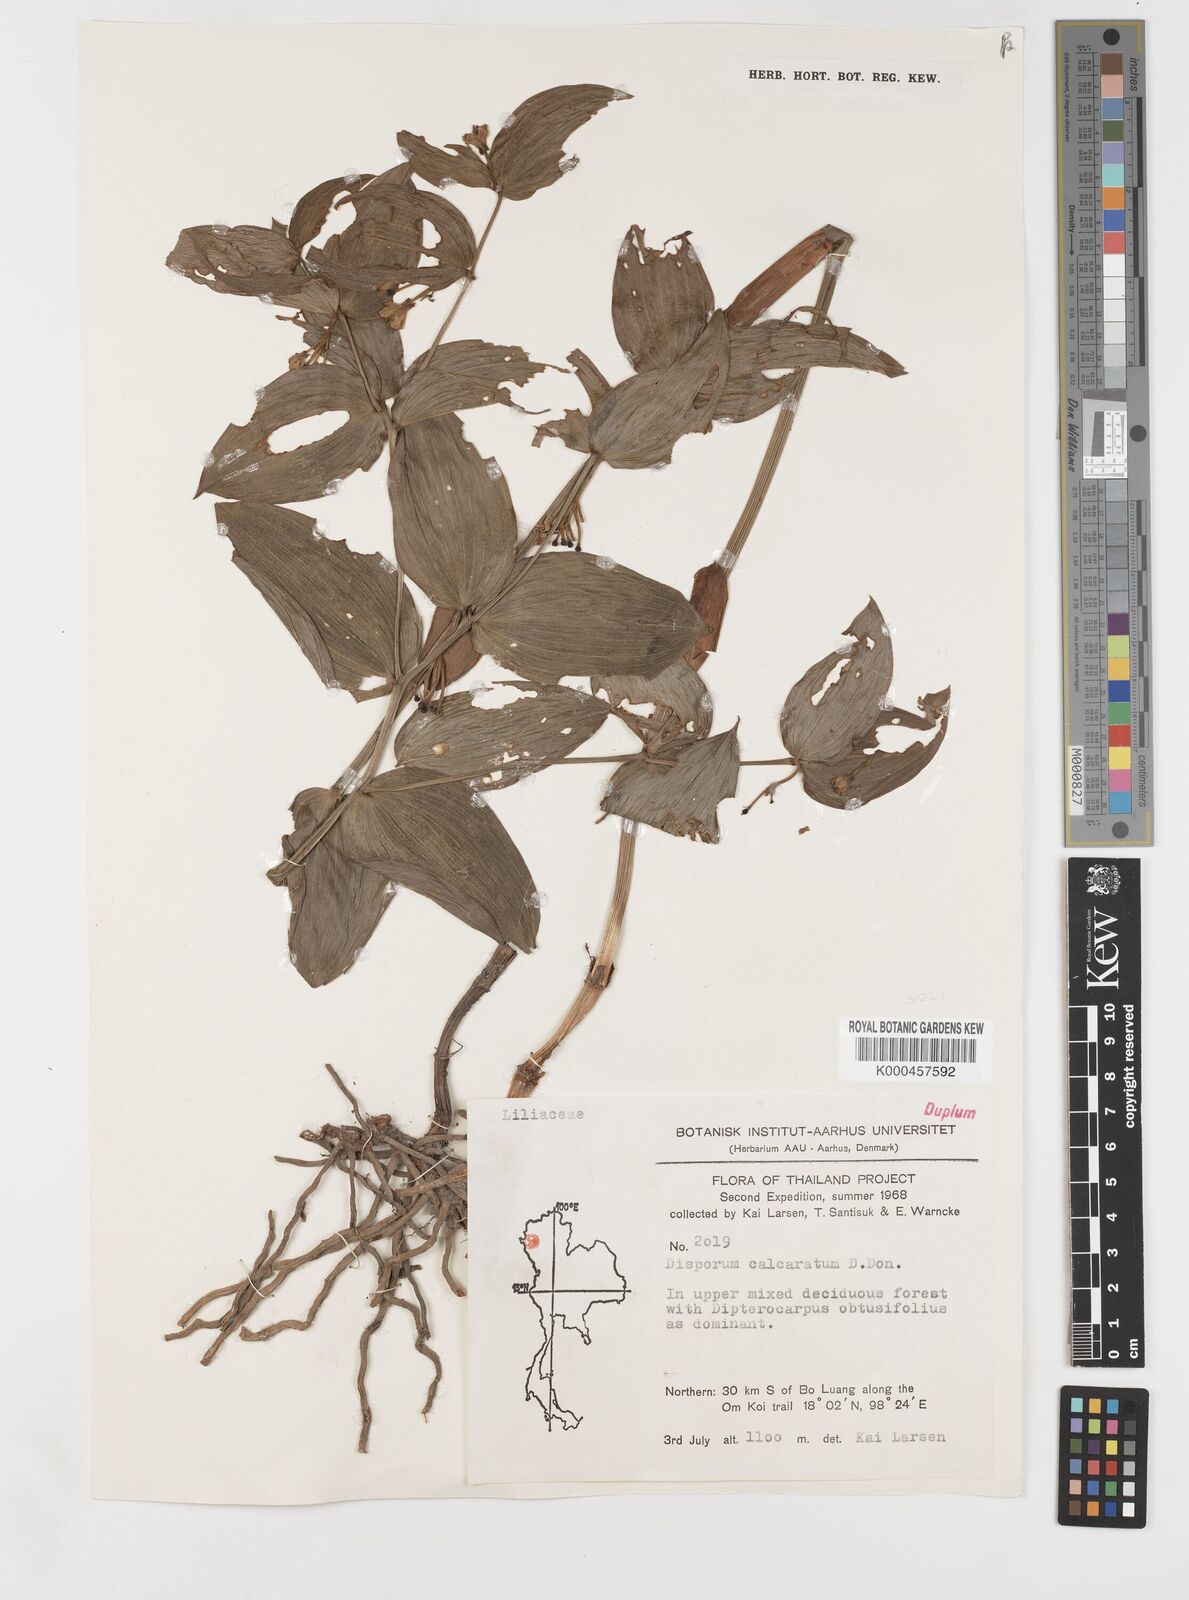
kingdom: Plantae
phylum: Tracheophyta
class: Liliopsida
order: Liliales
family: Colchicaceae
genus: Disporum
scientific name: Disporum calcaratum
